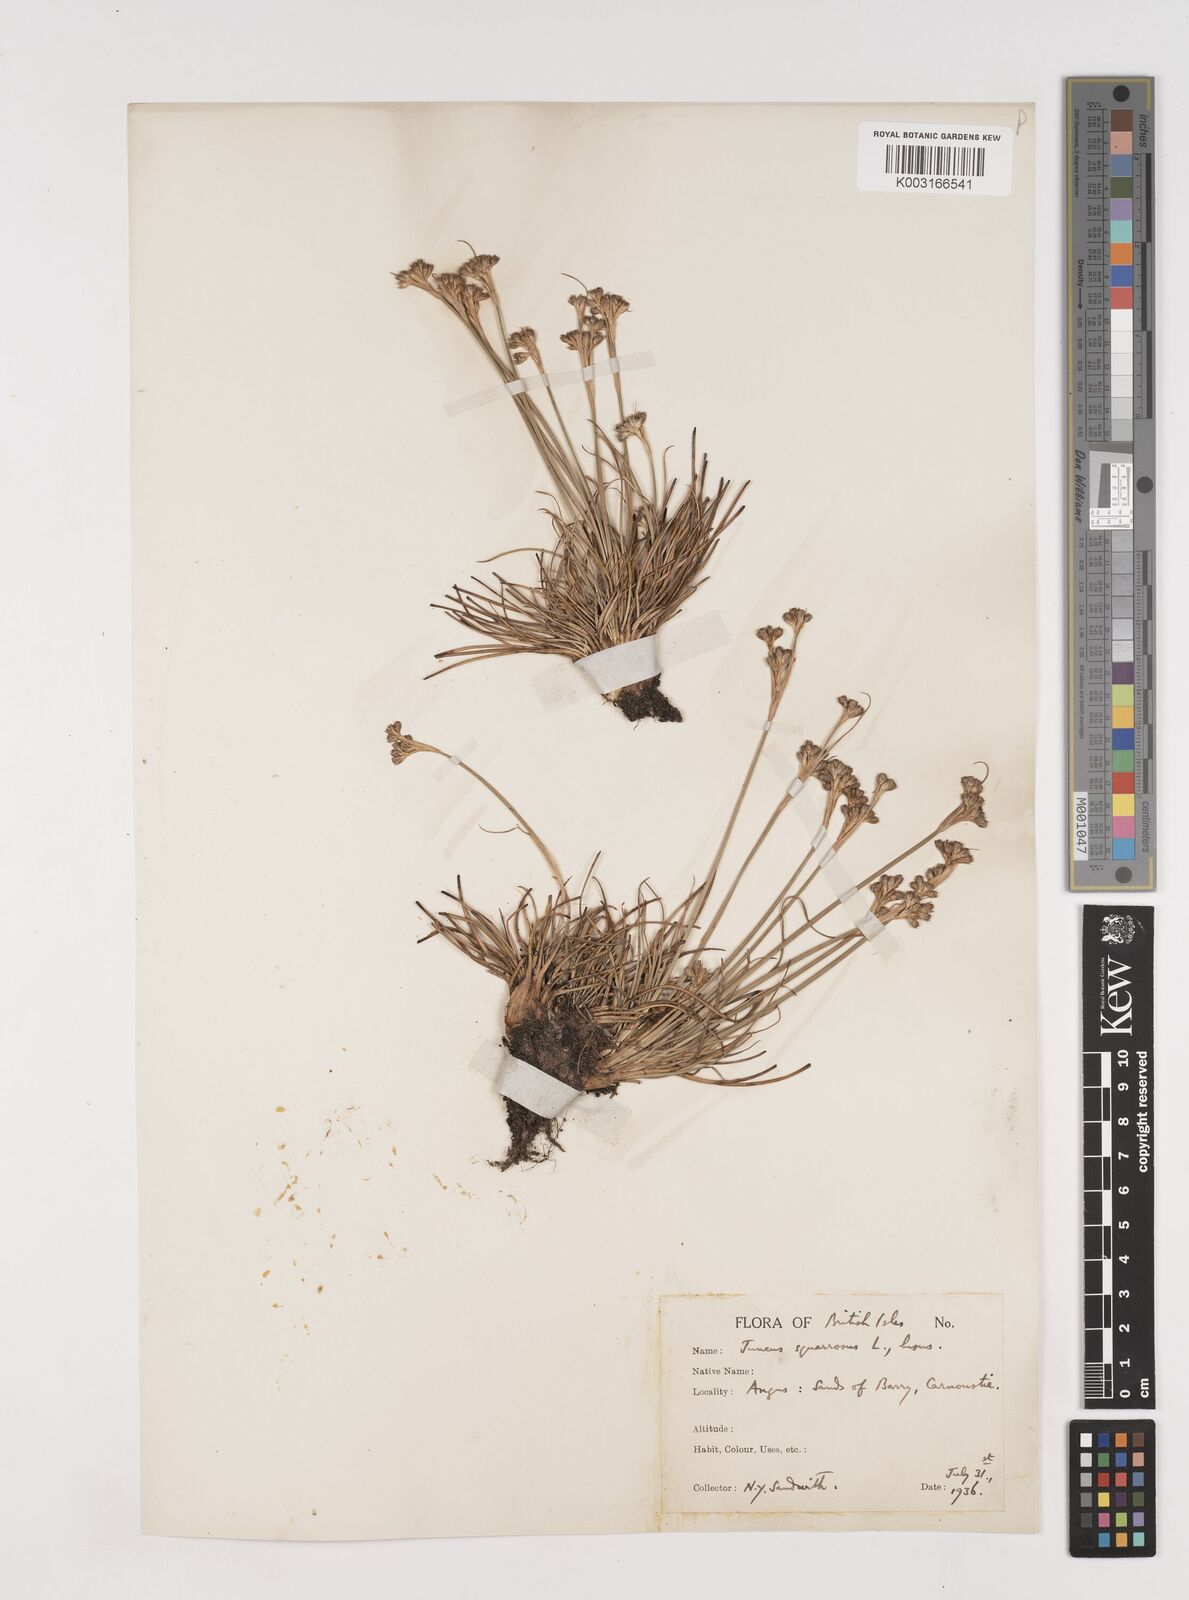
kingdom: Plantae
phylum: Tracheophyta
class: Liliopsida
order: Poales
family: Juncaceae
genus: Juncus
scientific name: Juncus squarrosus
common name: Heath rush
